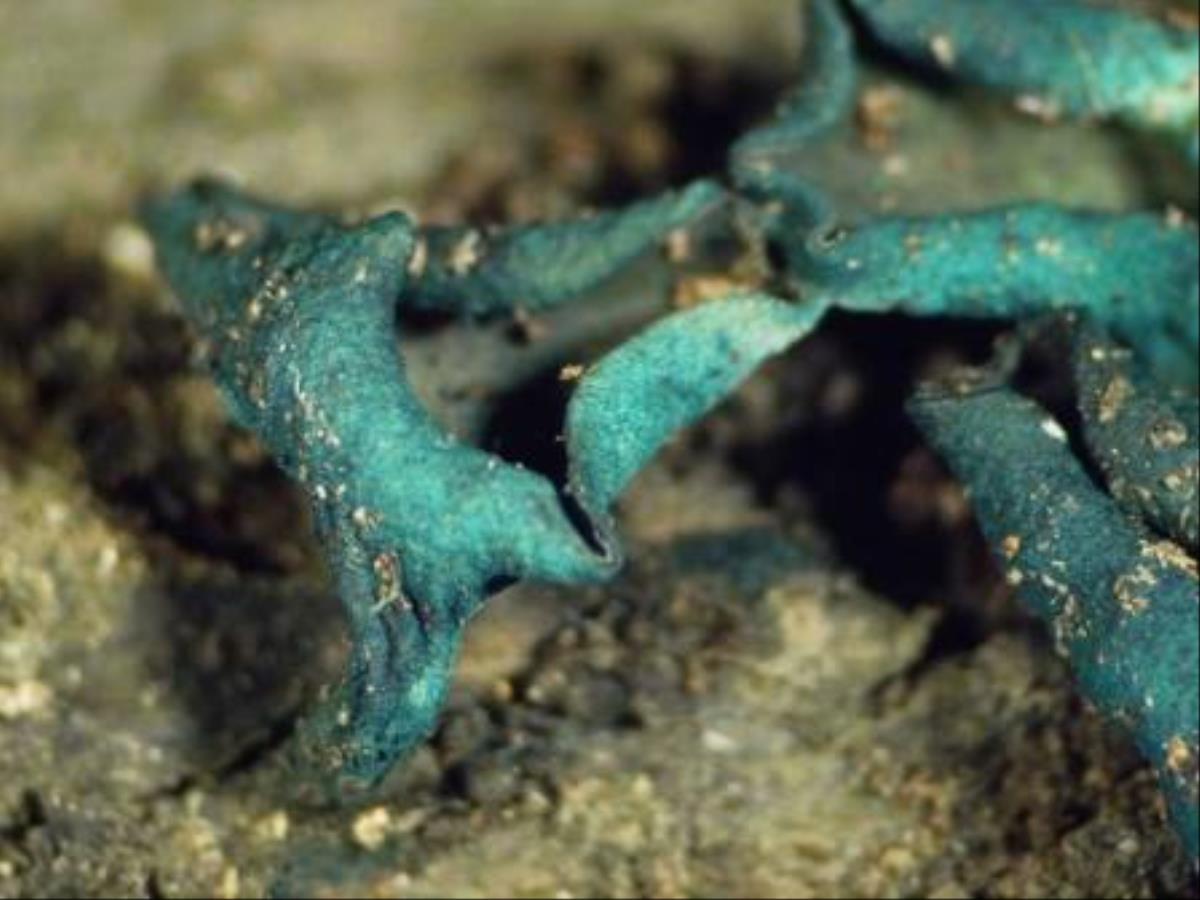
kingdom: Fungi
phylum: Ascomycota
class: Leotiomycetes
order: Helotiales
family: Chlorociboriaceae
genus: Chlorociboria
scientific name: Chlorociboria novae-zelandiae
